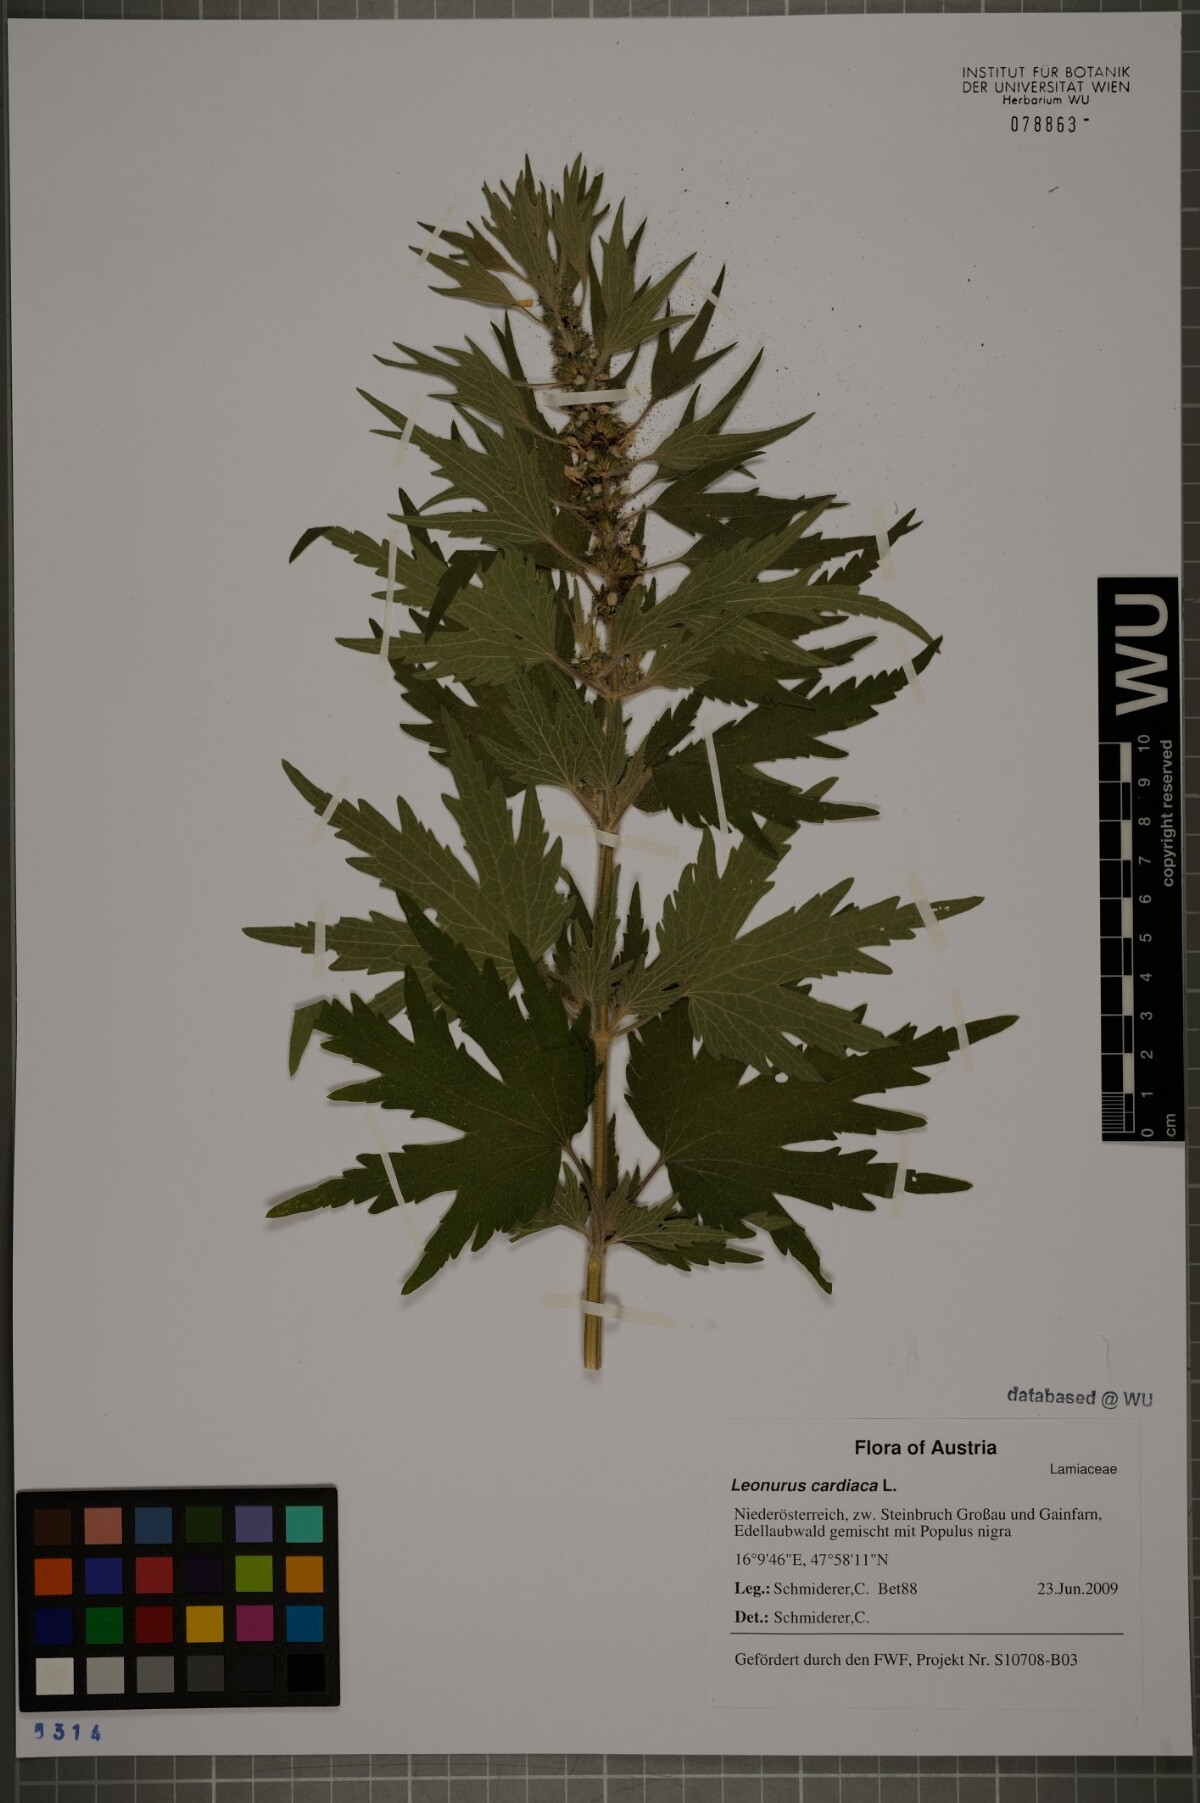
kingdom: Plantae
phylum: Tracheophyta
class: Magnoliopsida
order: Lamiales
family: Lamiaceae
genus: Leonurus
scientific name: Leonurus cardiaca
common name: Motherwort
